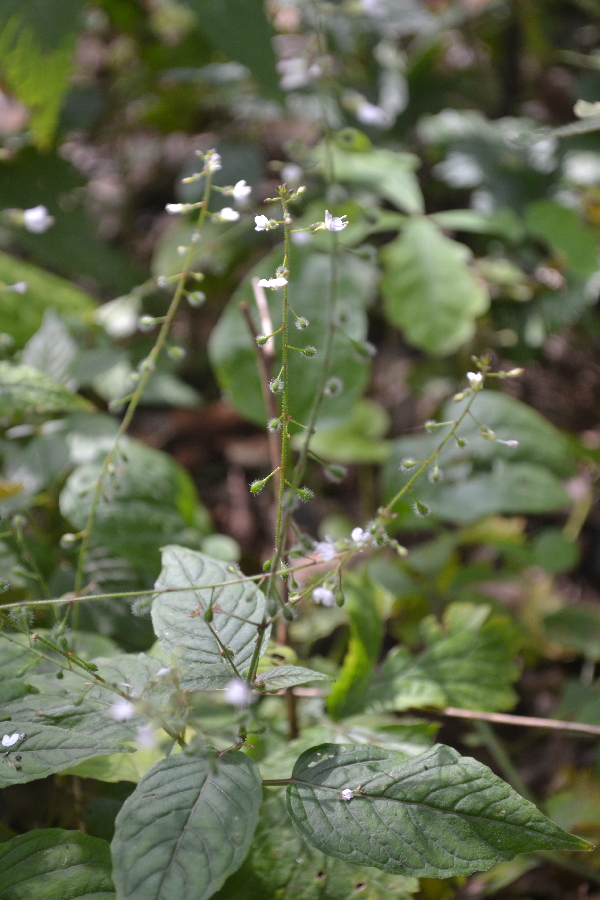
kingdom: Plantae
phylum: Tracheophyta
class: Magnoliopsida
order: Myrtales
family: Onagraceae
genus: Circaea
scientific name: Circaea lutetiana
